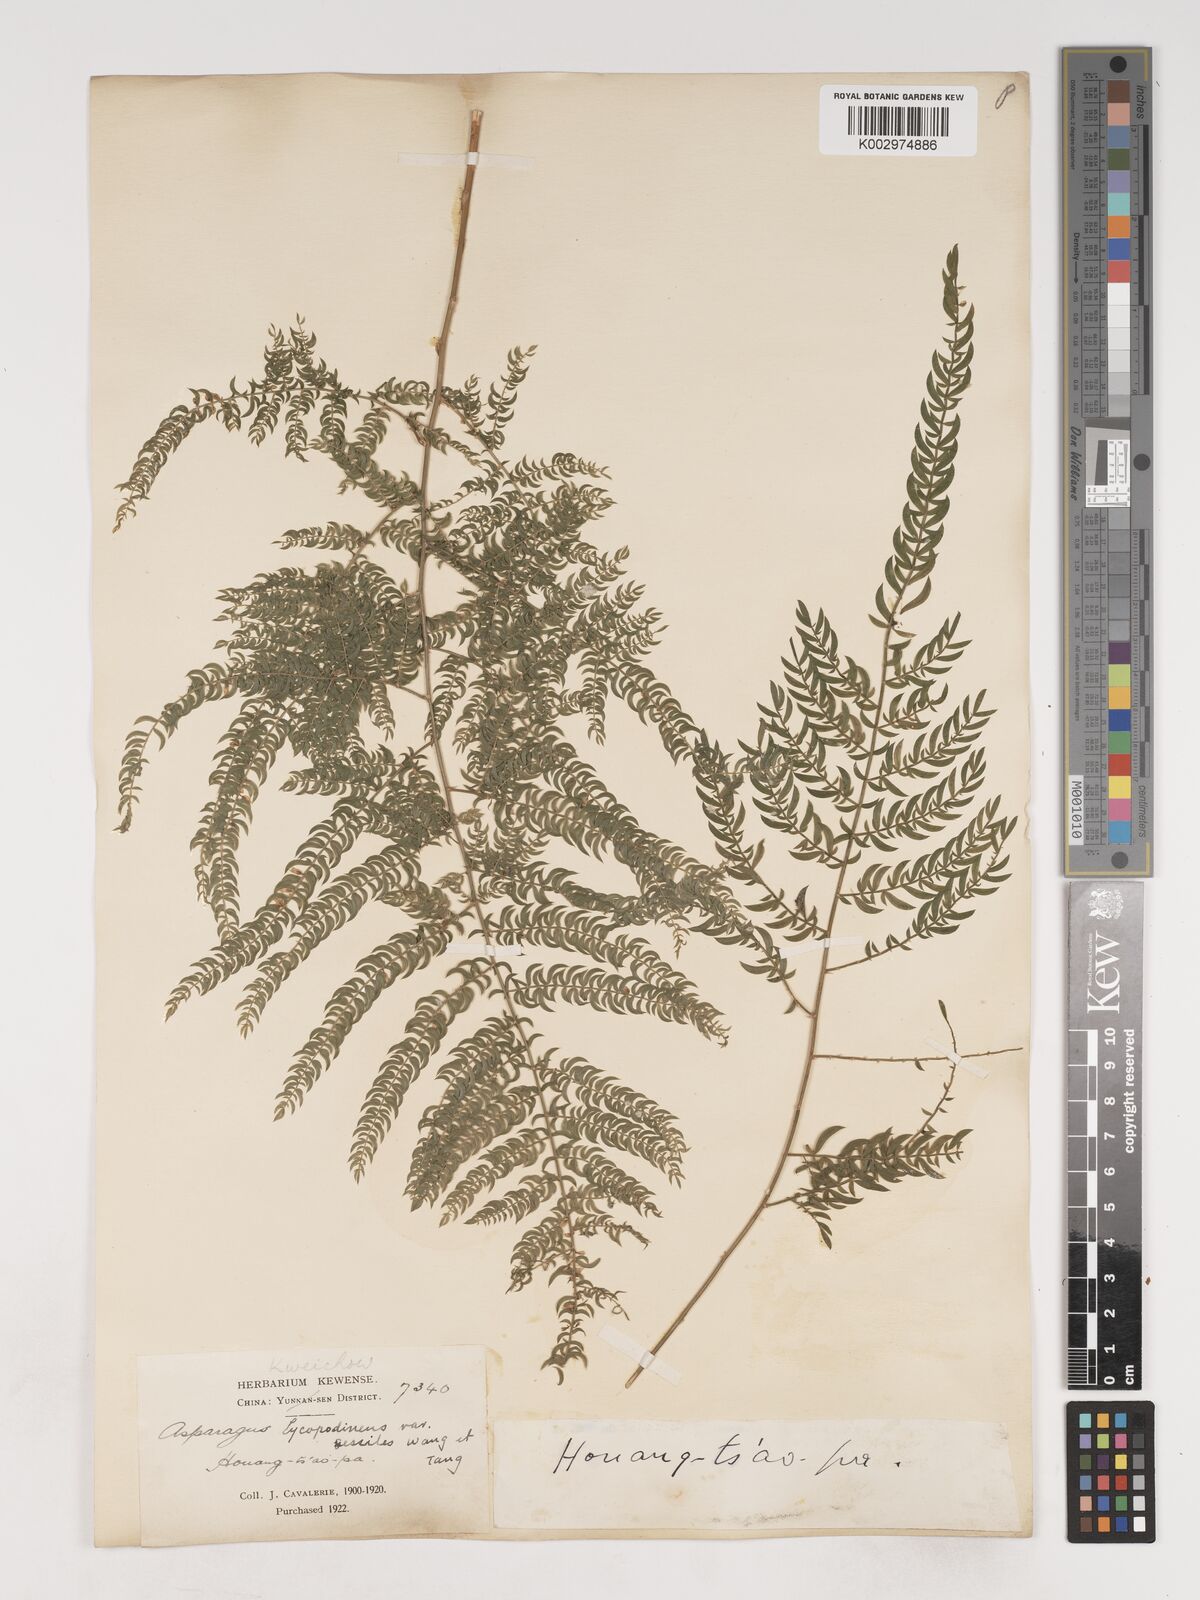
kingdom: Plantae
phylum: Tracheophyta
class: Liliopsida
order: Asparagales
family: Asparagaceae
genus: Asparagus
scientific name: Asparagus lycopodineus
